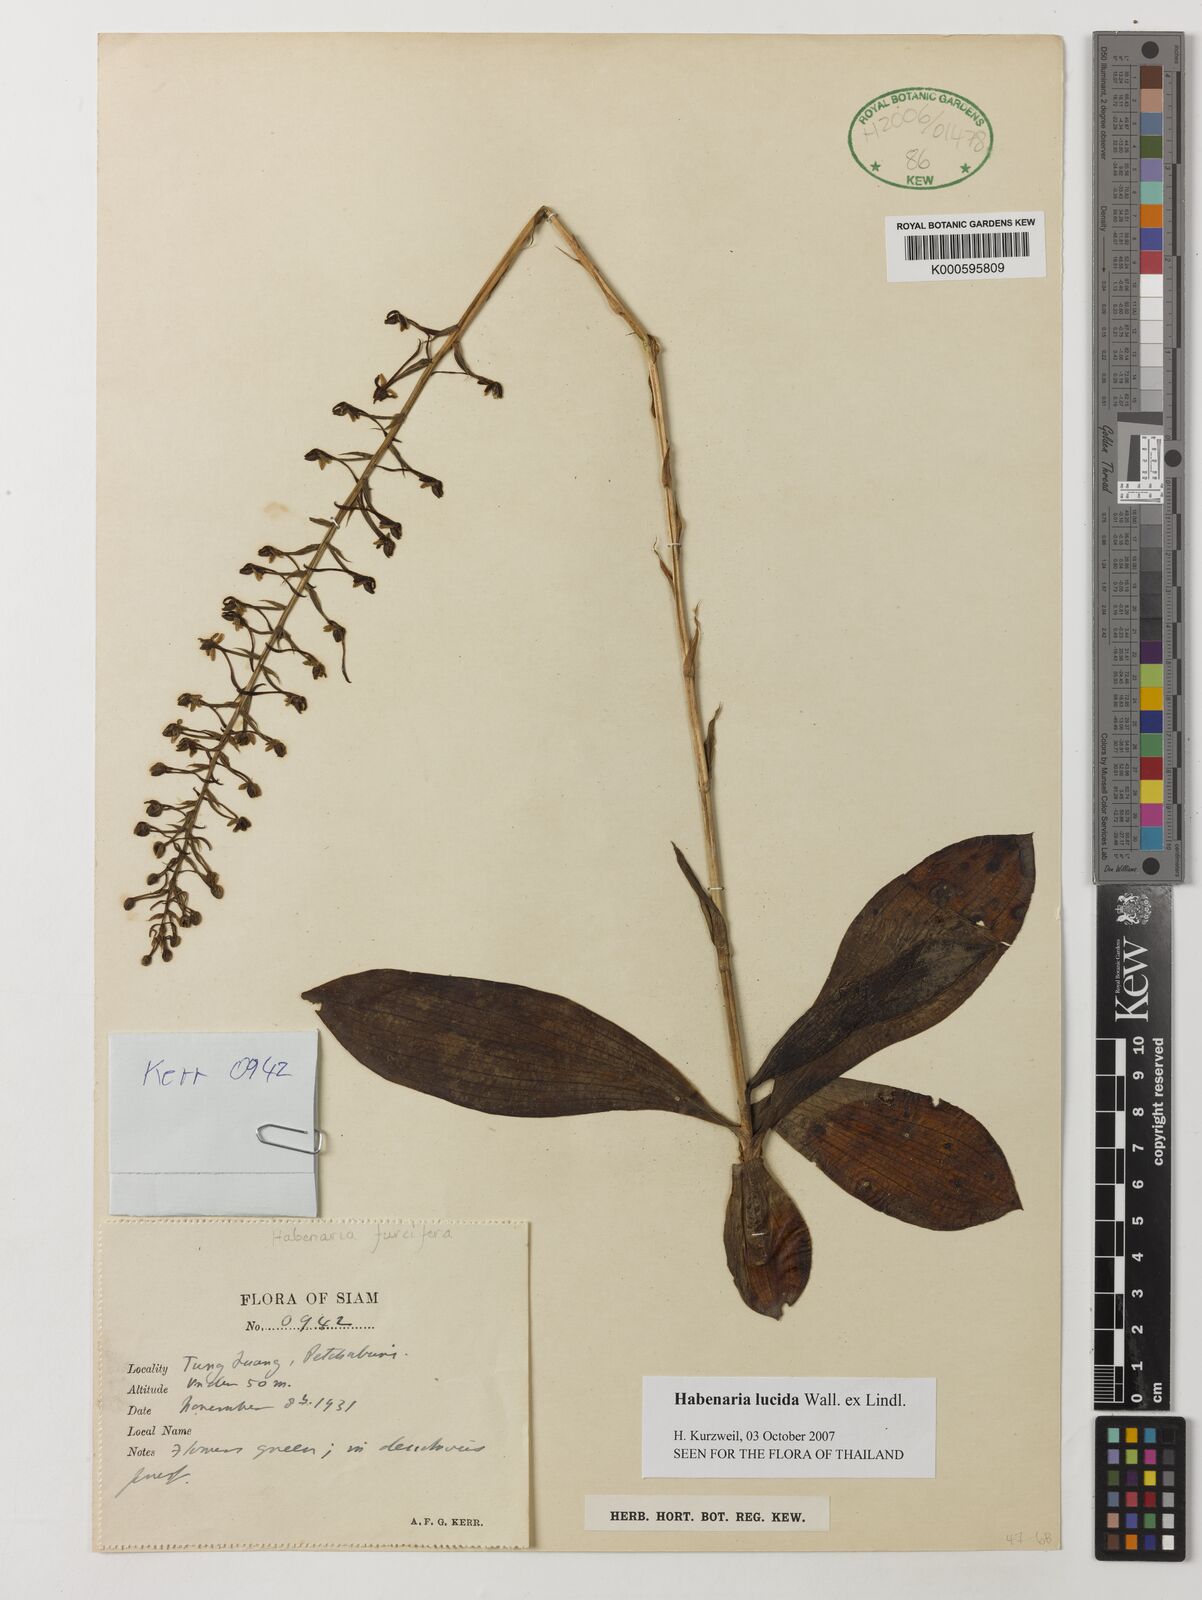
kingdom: Plantae
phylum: Tracheophyta
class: Liliopsida
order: Asparagales
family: Orchidaceae
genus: Habenaria
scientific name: Habenaria lucida
